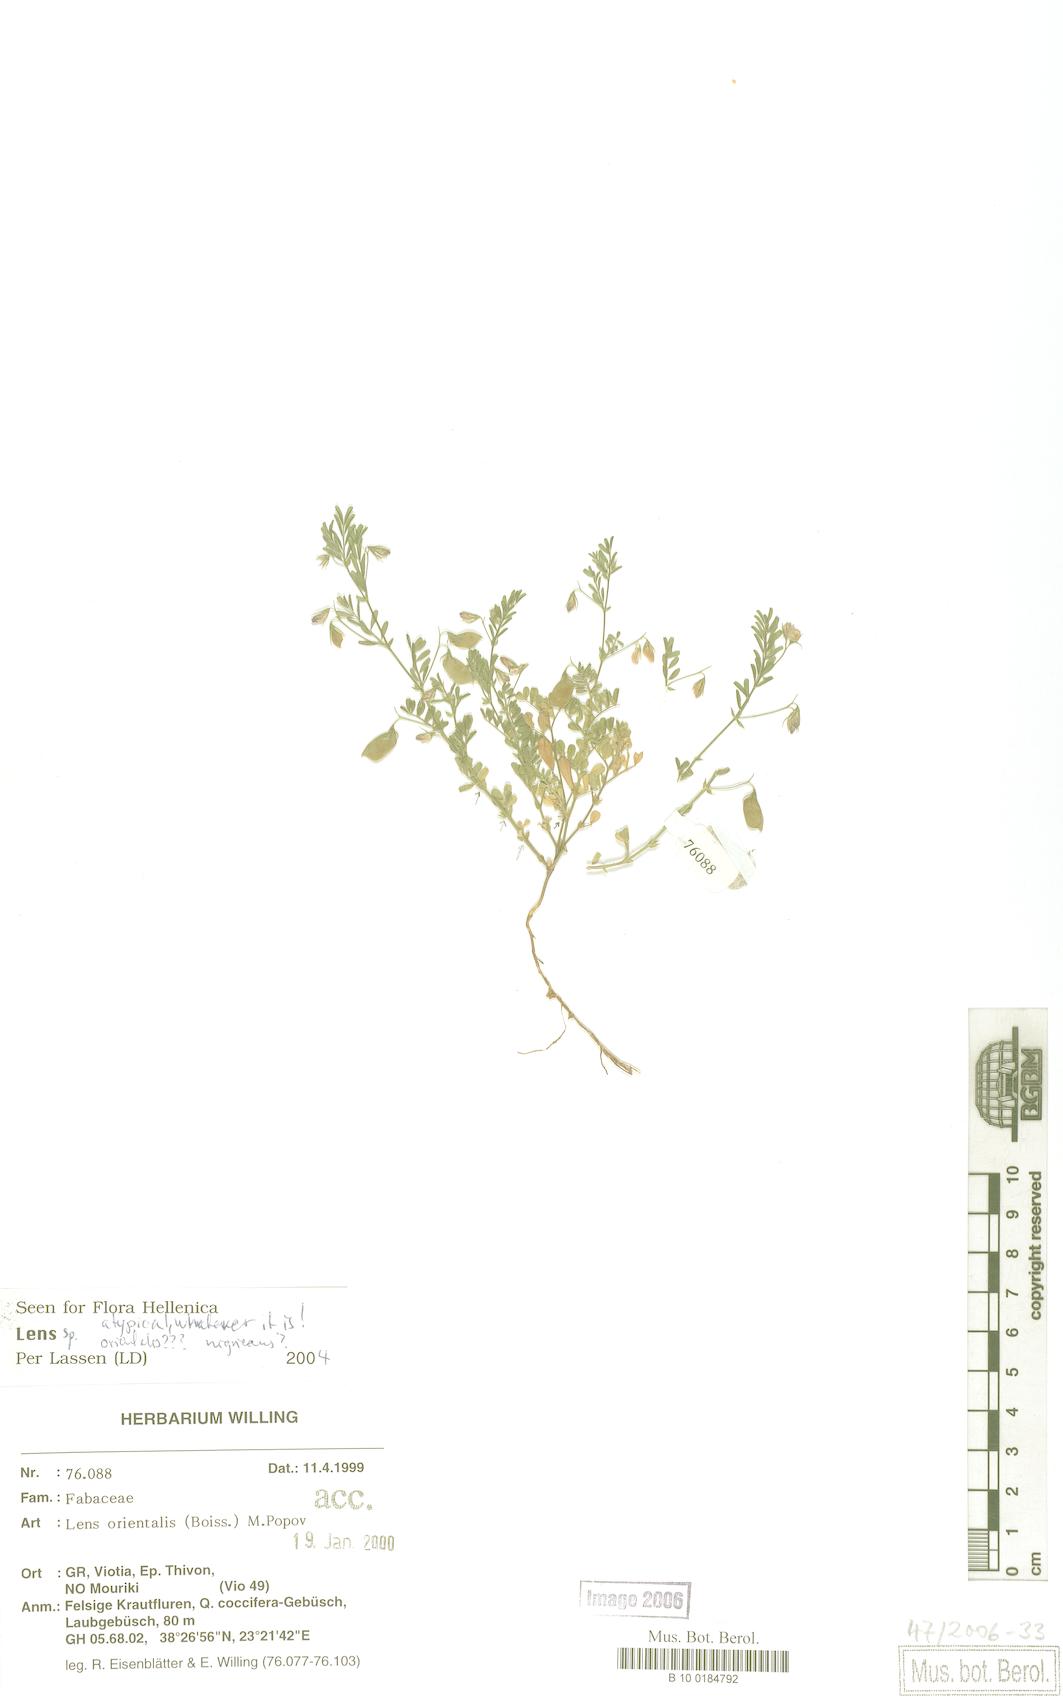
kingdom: Plantae
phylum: Tracheophyta
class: Magnoliopsida
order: Fabales
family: Fabaceae
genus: Vicia
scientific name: Vicia orientalis
